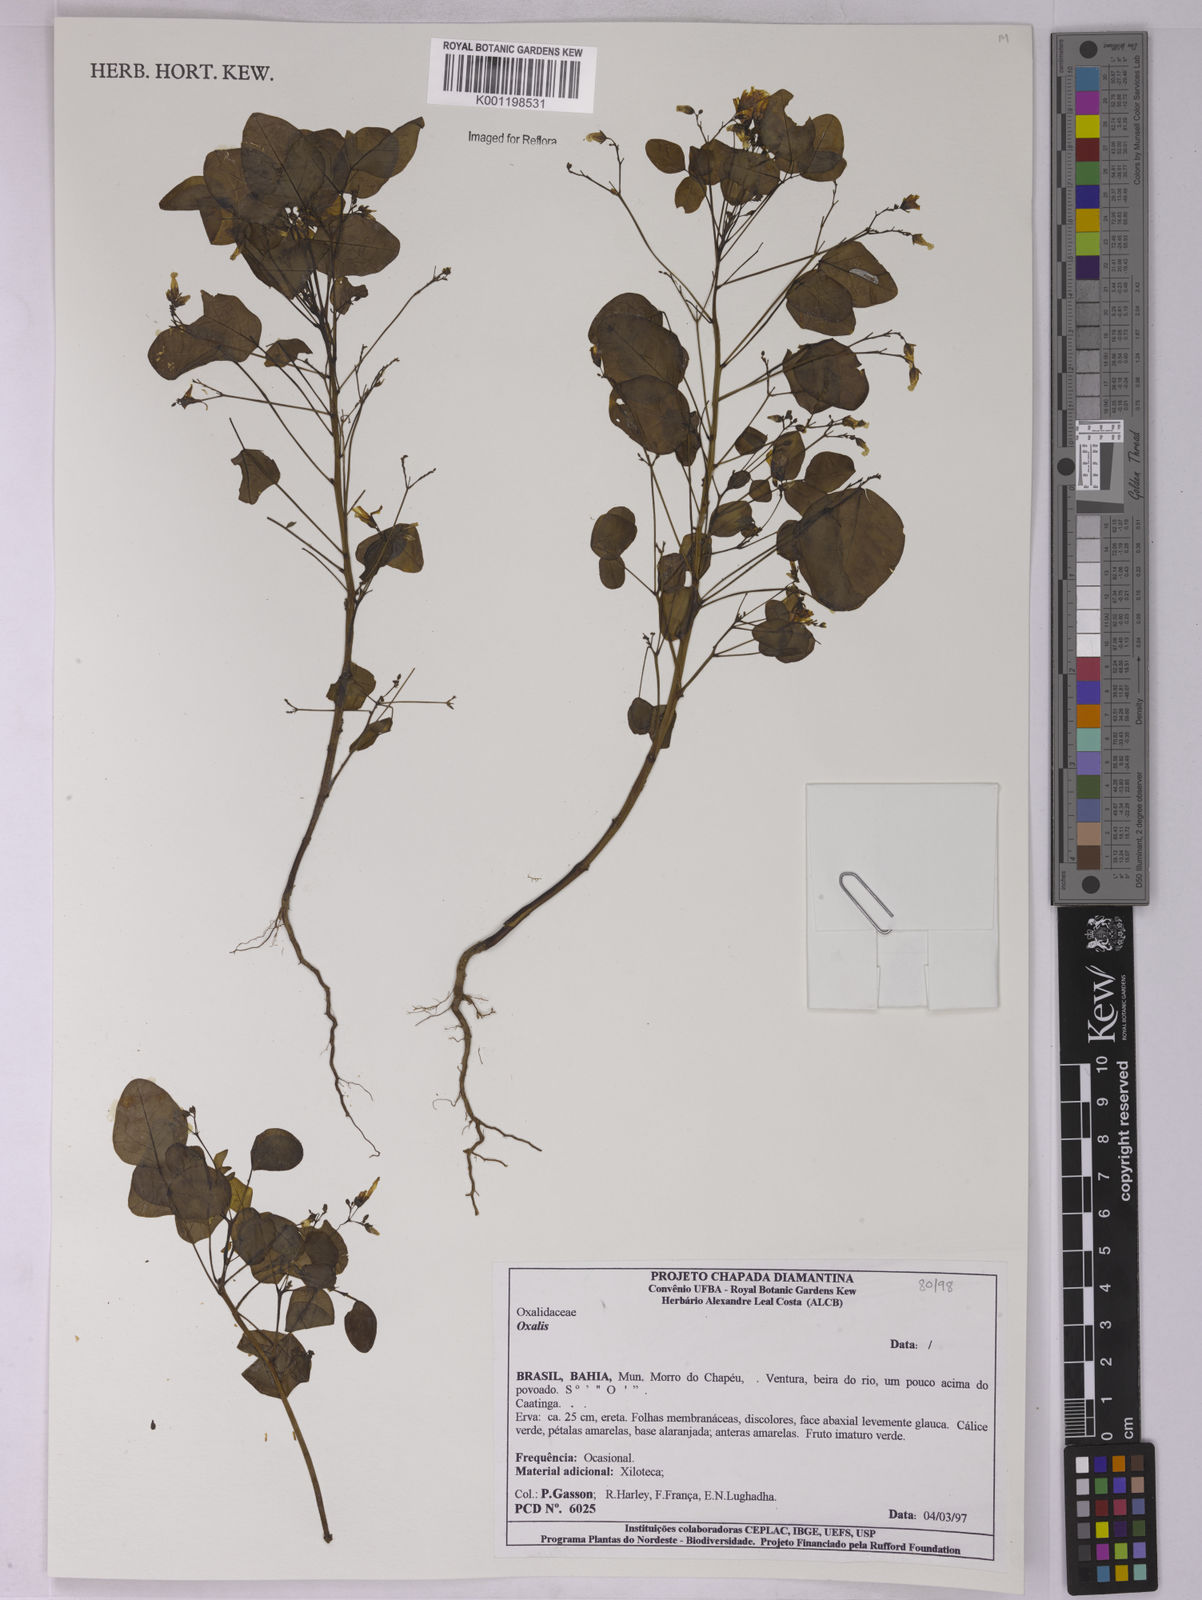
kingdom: Plantae
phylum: Tracheophyta
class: Magnoliopsida
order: Oxalidales
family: Oxalidaceae
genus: Oxalis
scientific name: Oxalis
